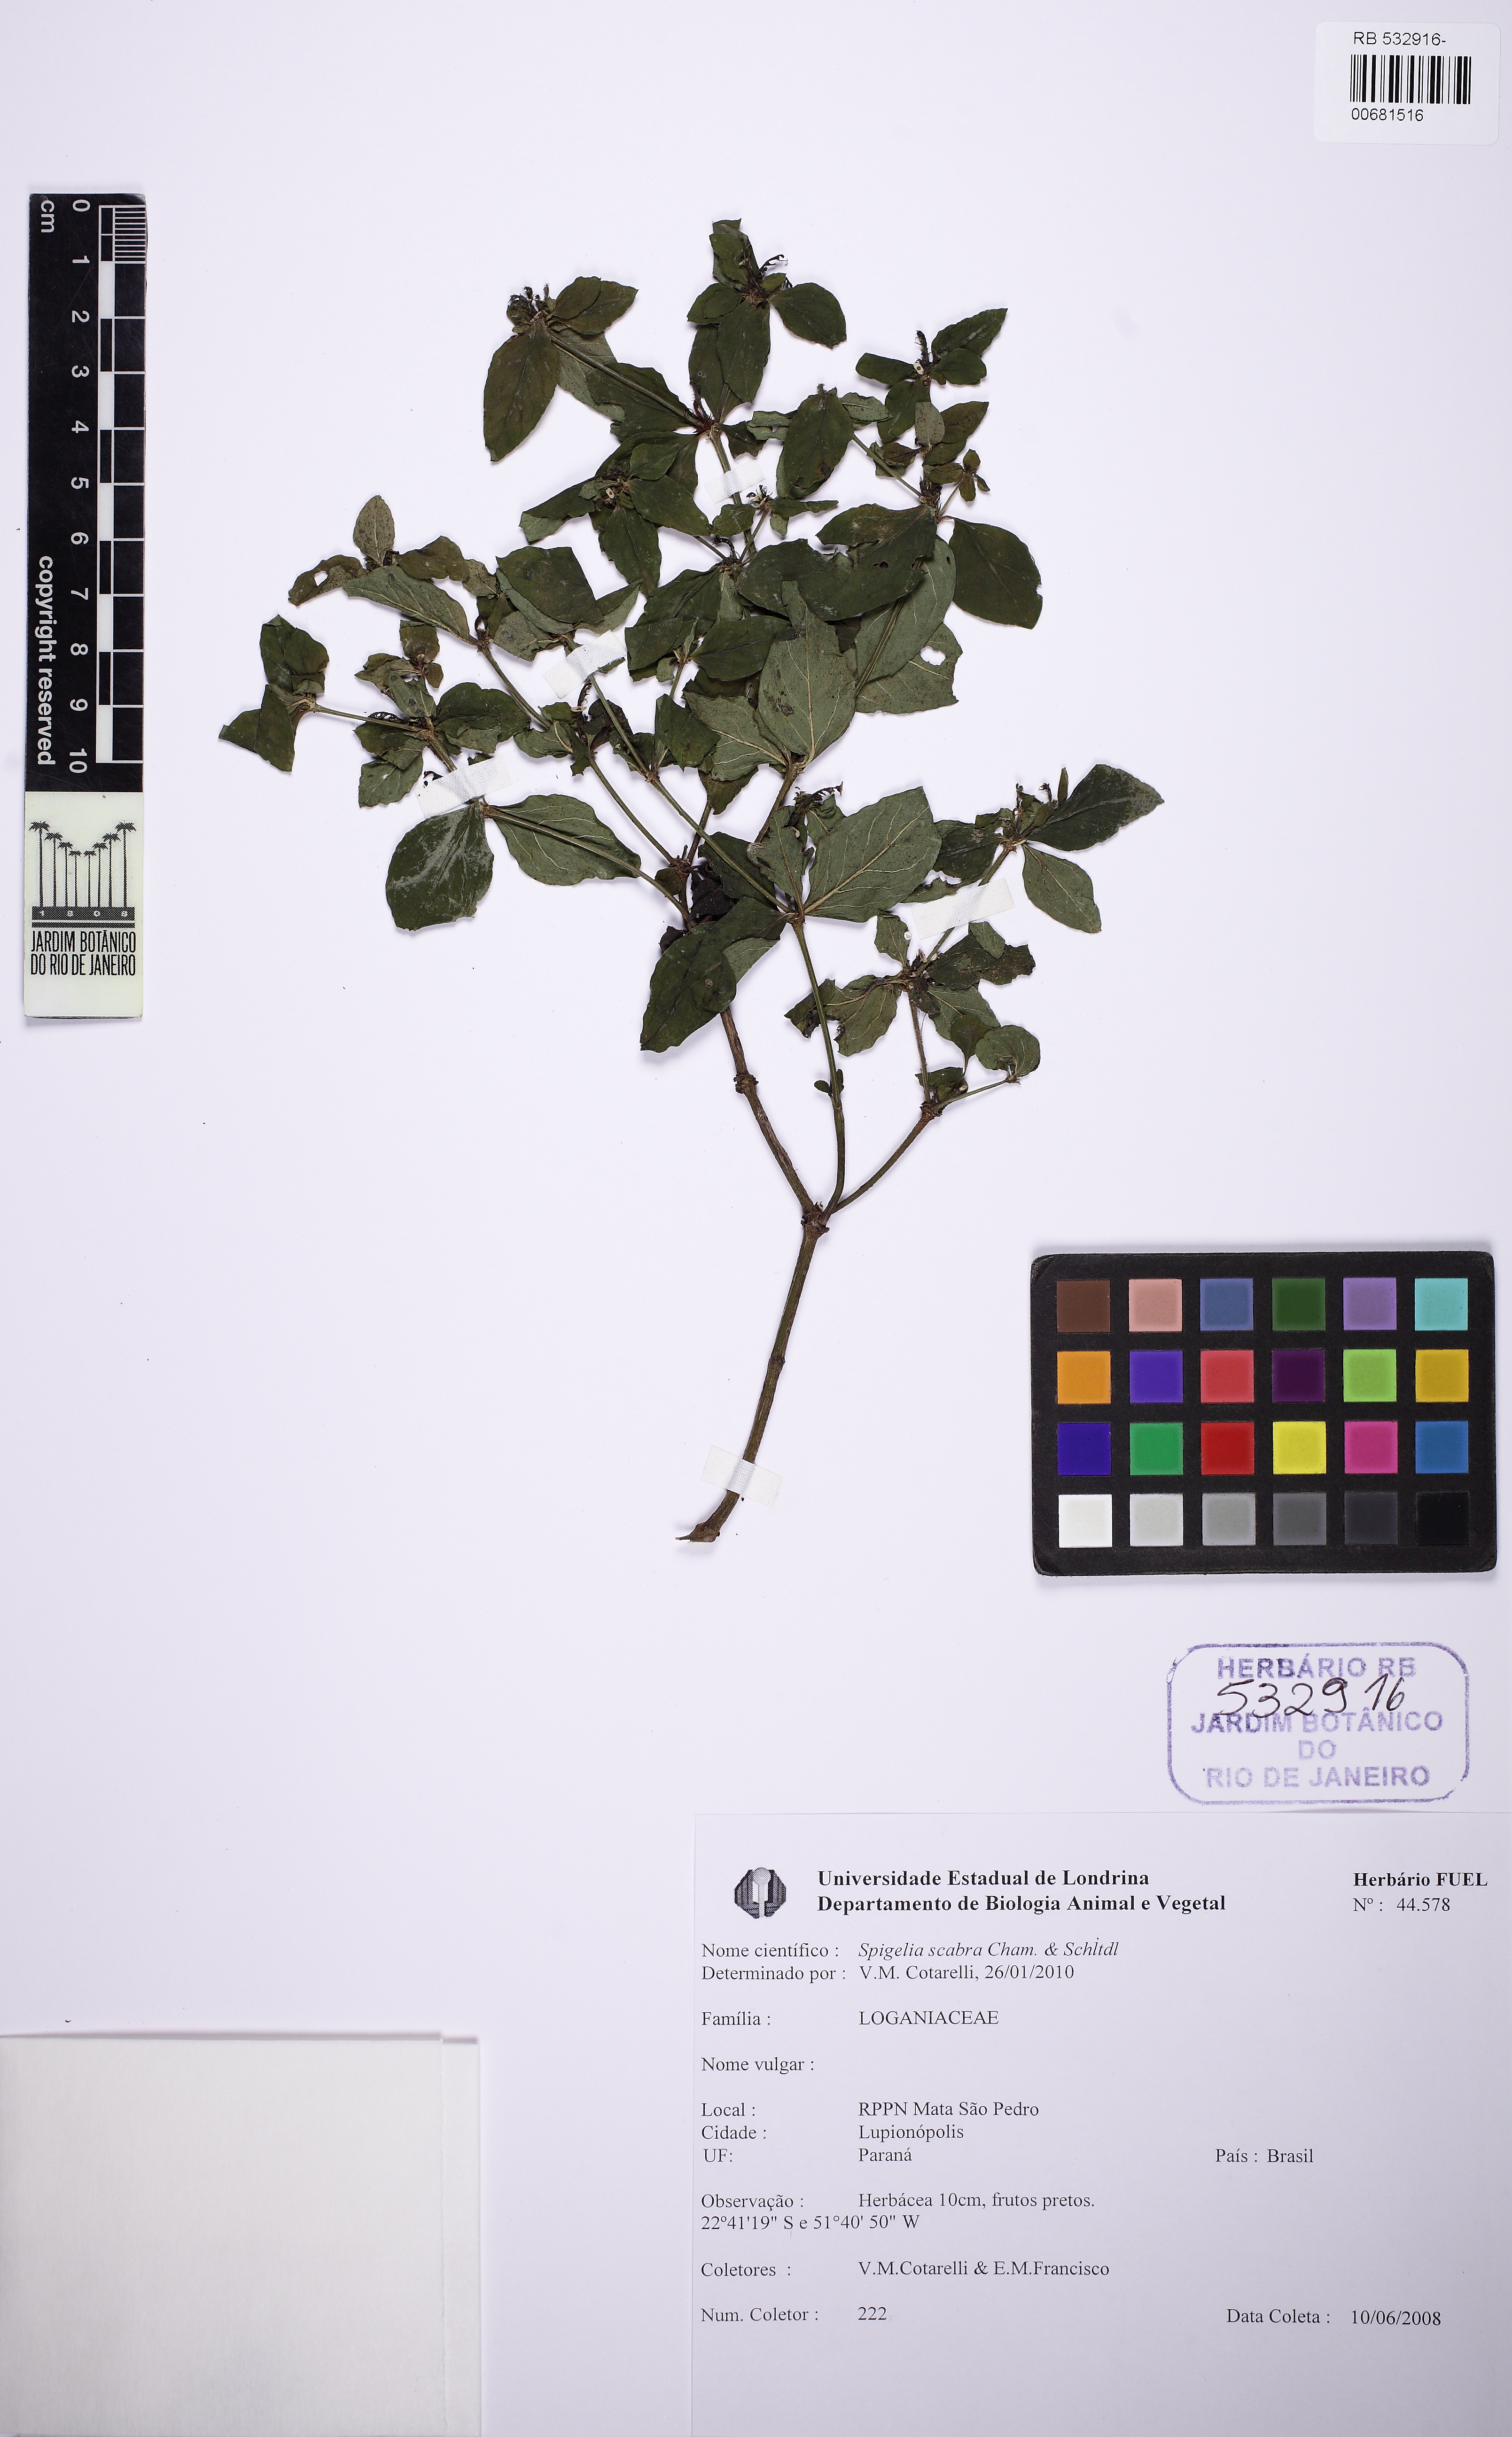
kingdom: Plantae
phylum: Tracheophyta
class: Magnoliopsida
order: Gentianales
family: Loganiaceae
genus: Spigelia
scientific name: Spigelia humboldtiana
